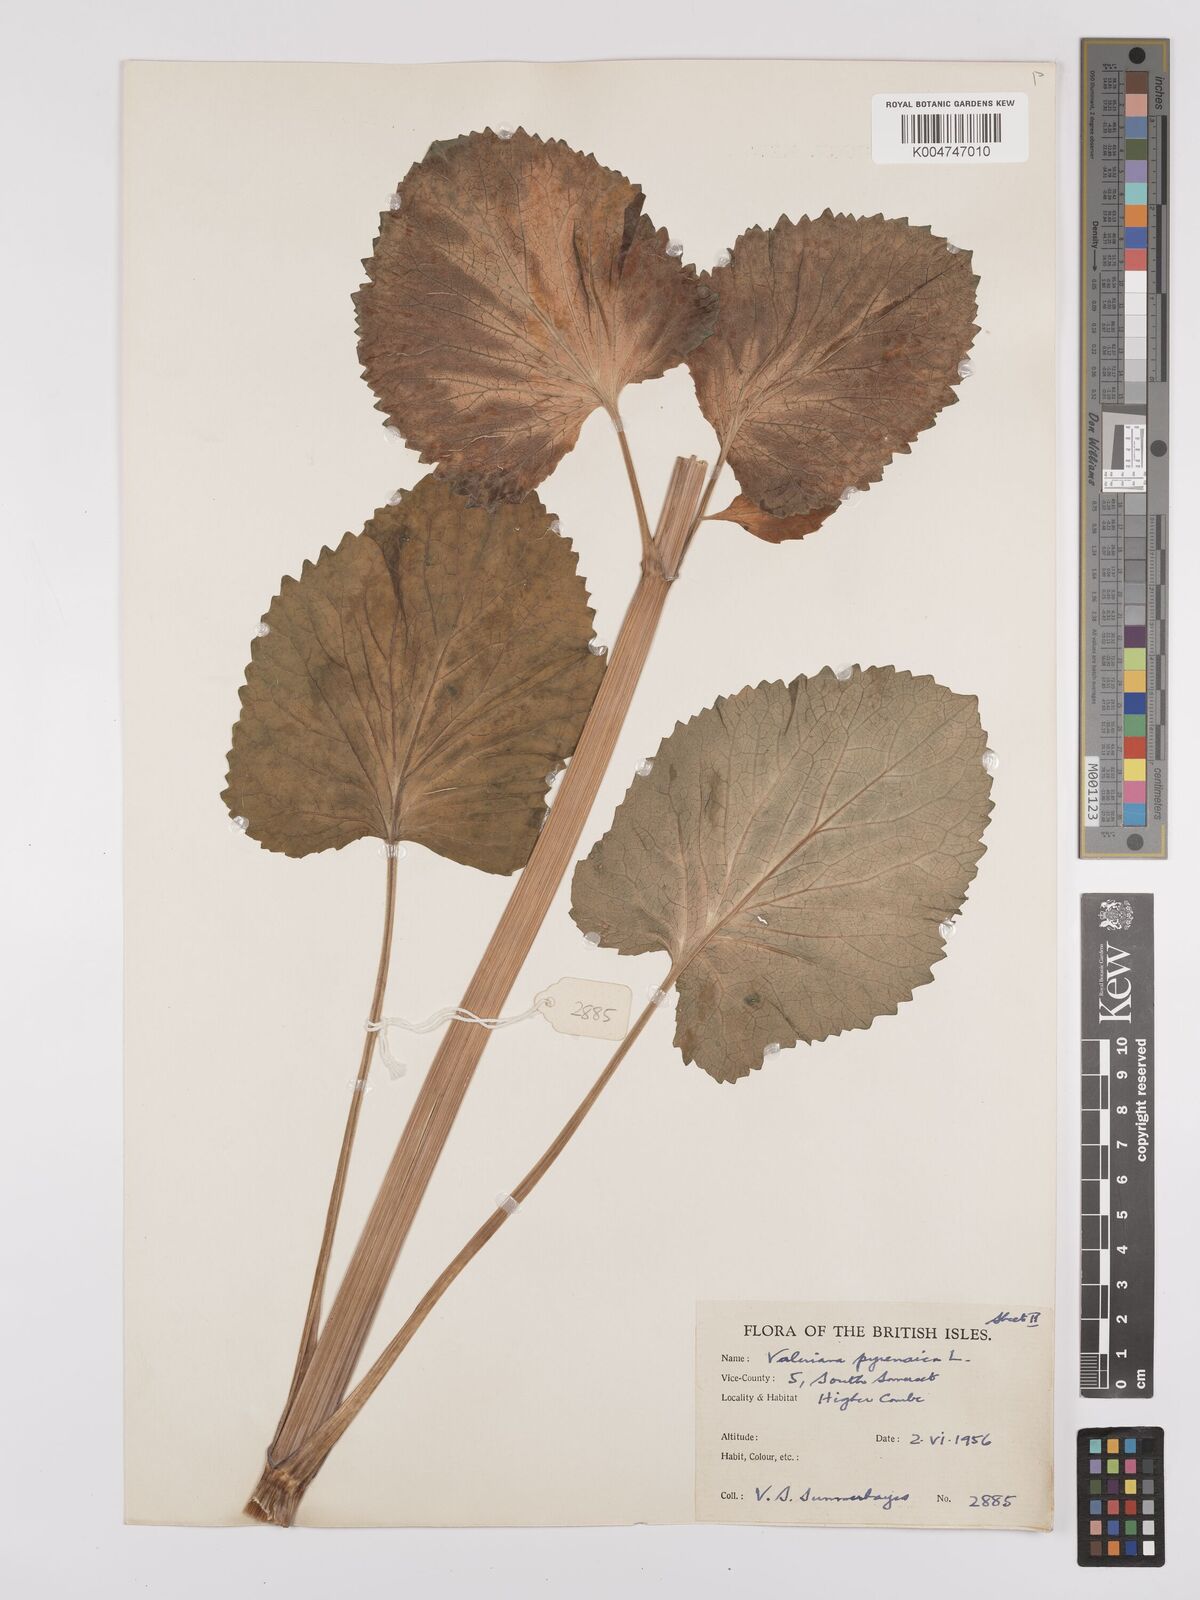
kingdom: Plantae
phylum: Tracheophyta
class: Magnoliopsida
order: Dipsacales
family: Caprifoliaceae
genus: Valeriana
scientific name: Valeriana pyrenaica
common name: Pyrenean valerian
